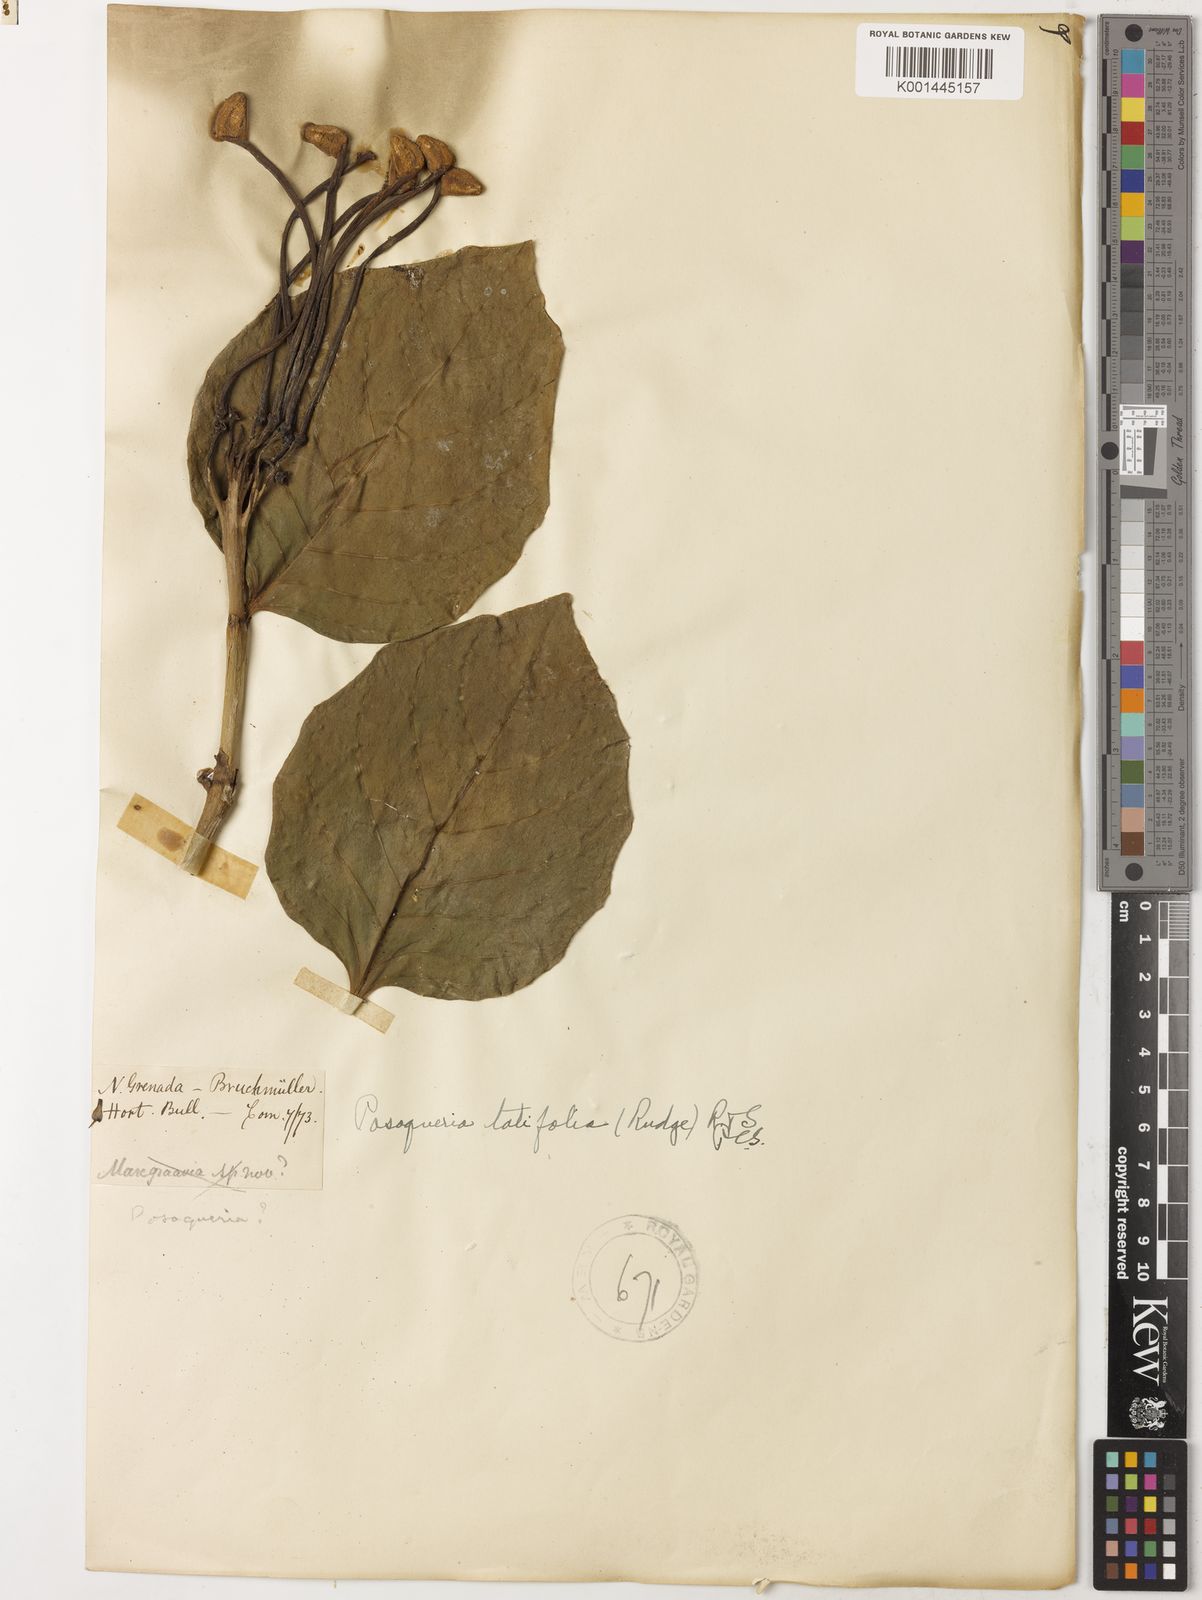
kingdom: Plantae
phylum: Tracheophyta
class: Magnoliopsida
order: Gentianales
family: Rubiaceae
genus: Posoqueria
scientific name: Posoqueria latifolia
